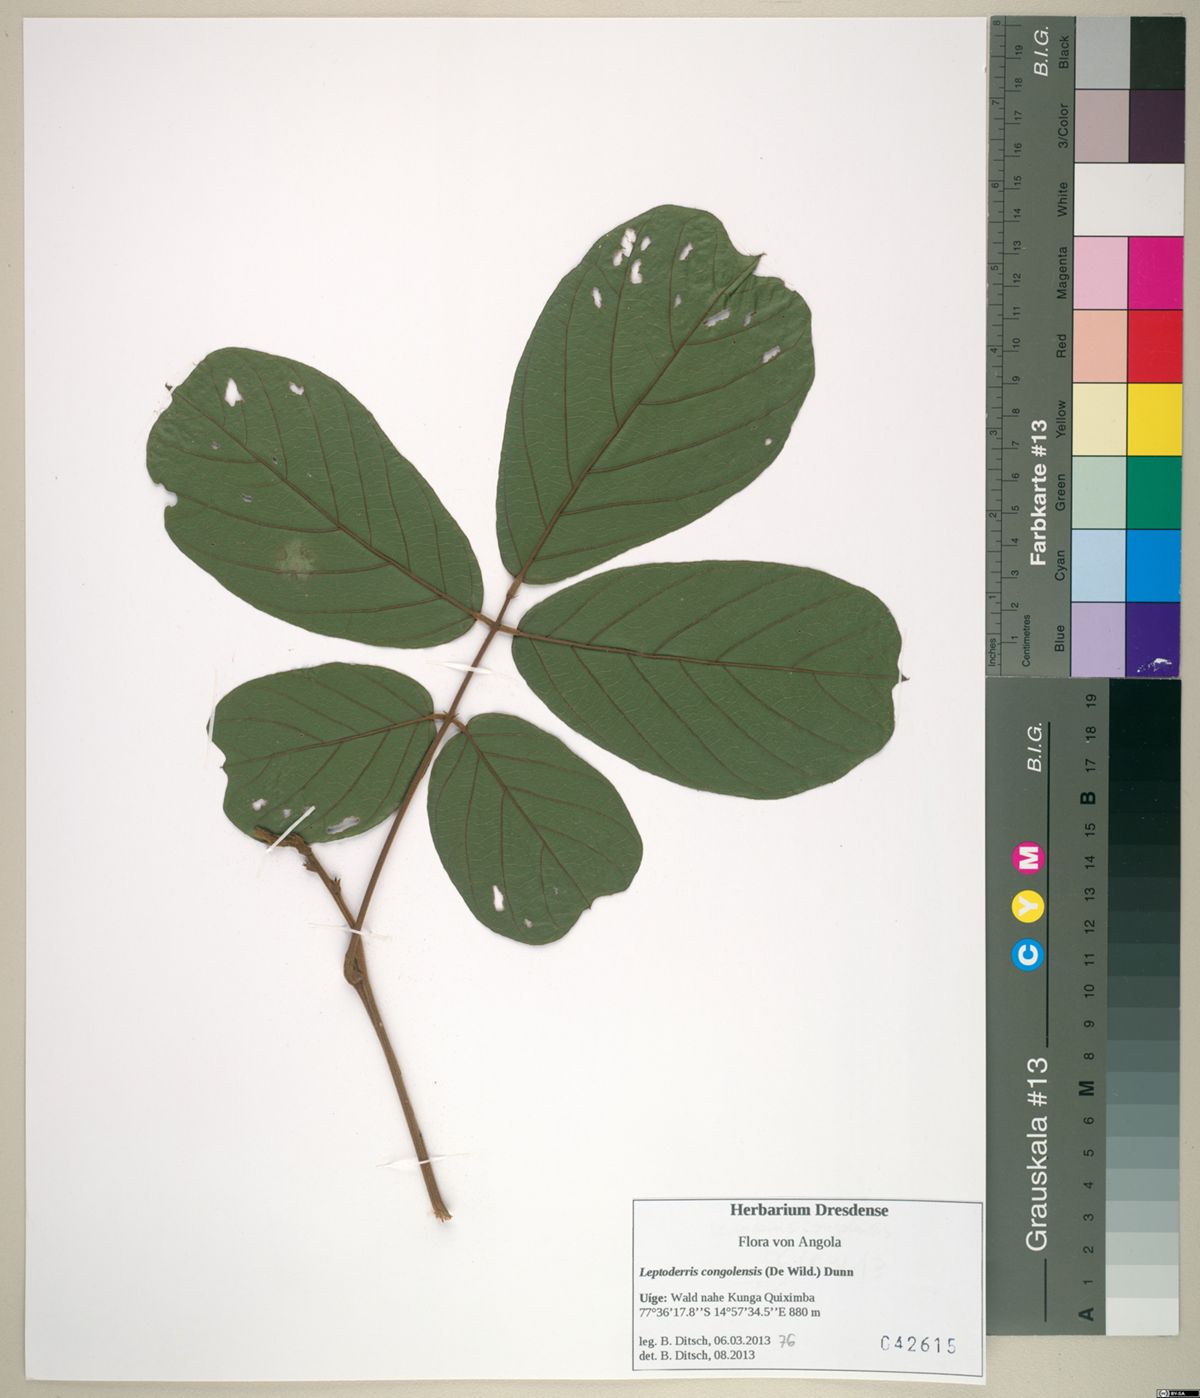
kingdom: Plantae
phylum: Tracheophyta
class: Magnoliopsida
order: Fabales
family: Fabaceae
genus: Leptoderris
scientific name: Leptoderris congolensis
